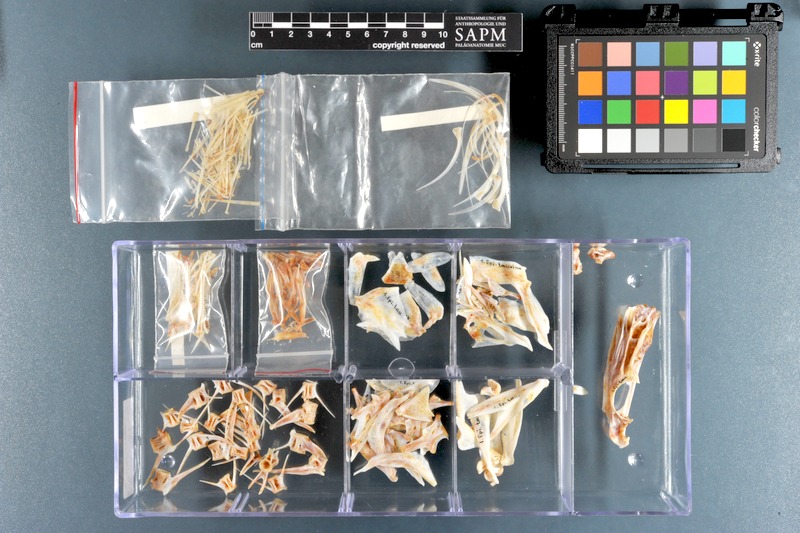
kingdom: Animalia
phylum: Chordata
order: Perciformes
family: Serranidae
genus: Epinephelus
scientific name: Epinephelus tauvina
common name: Greasy grouper
